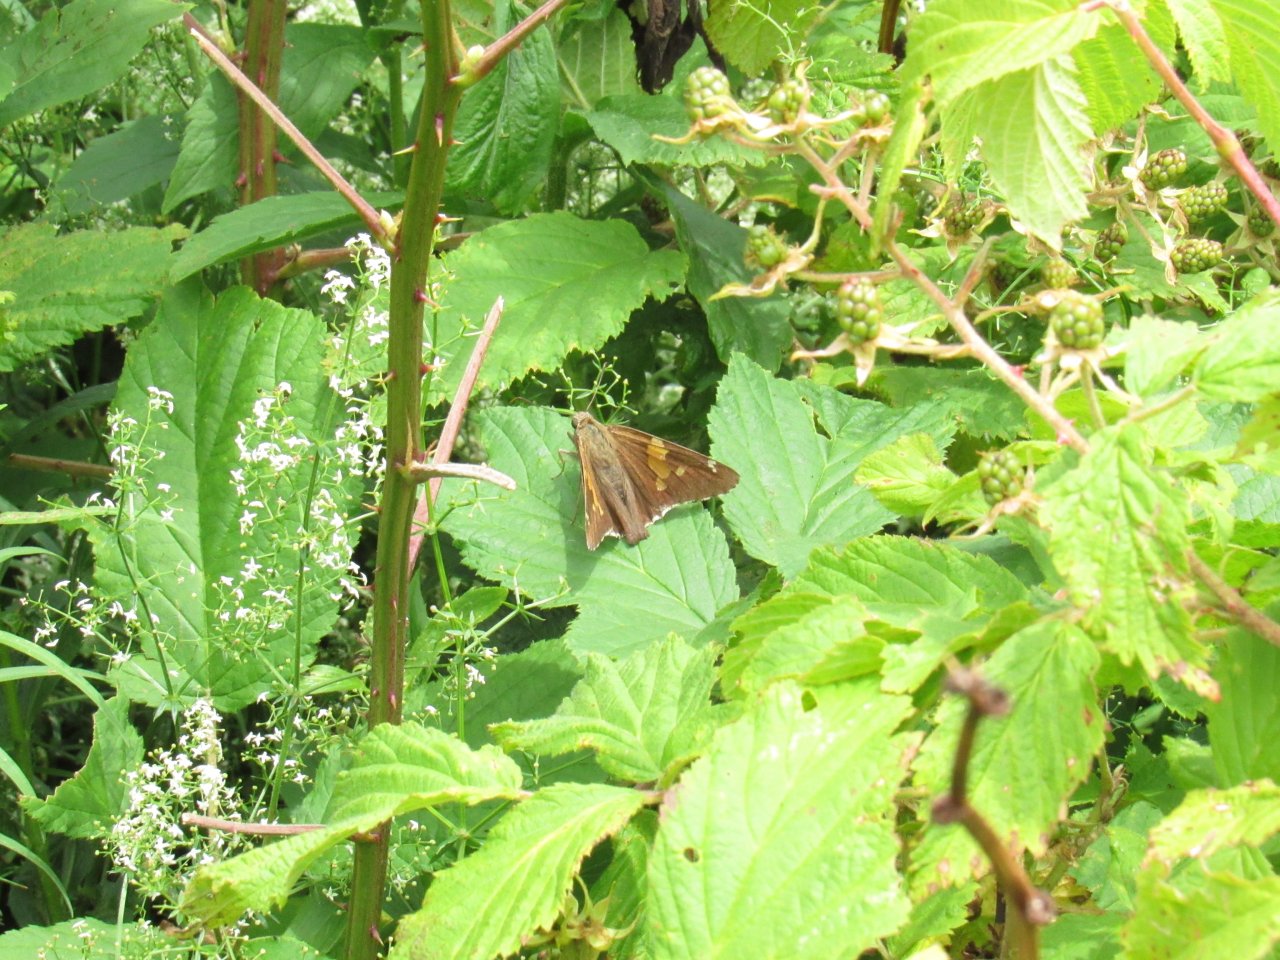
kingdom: Animalia
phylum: Arthropoda
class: Insecta
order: Lepidoptera
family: Hesperiidae
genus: Epargyreus
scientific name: Epargyreus clarus
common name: Silver-spotted Skipper
